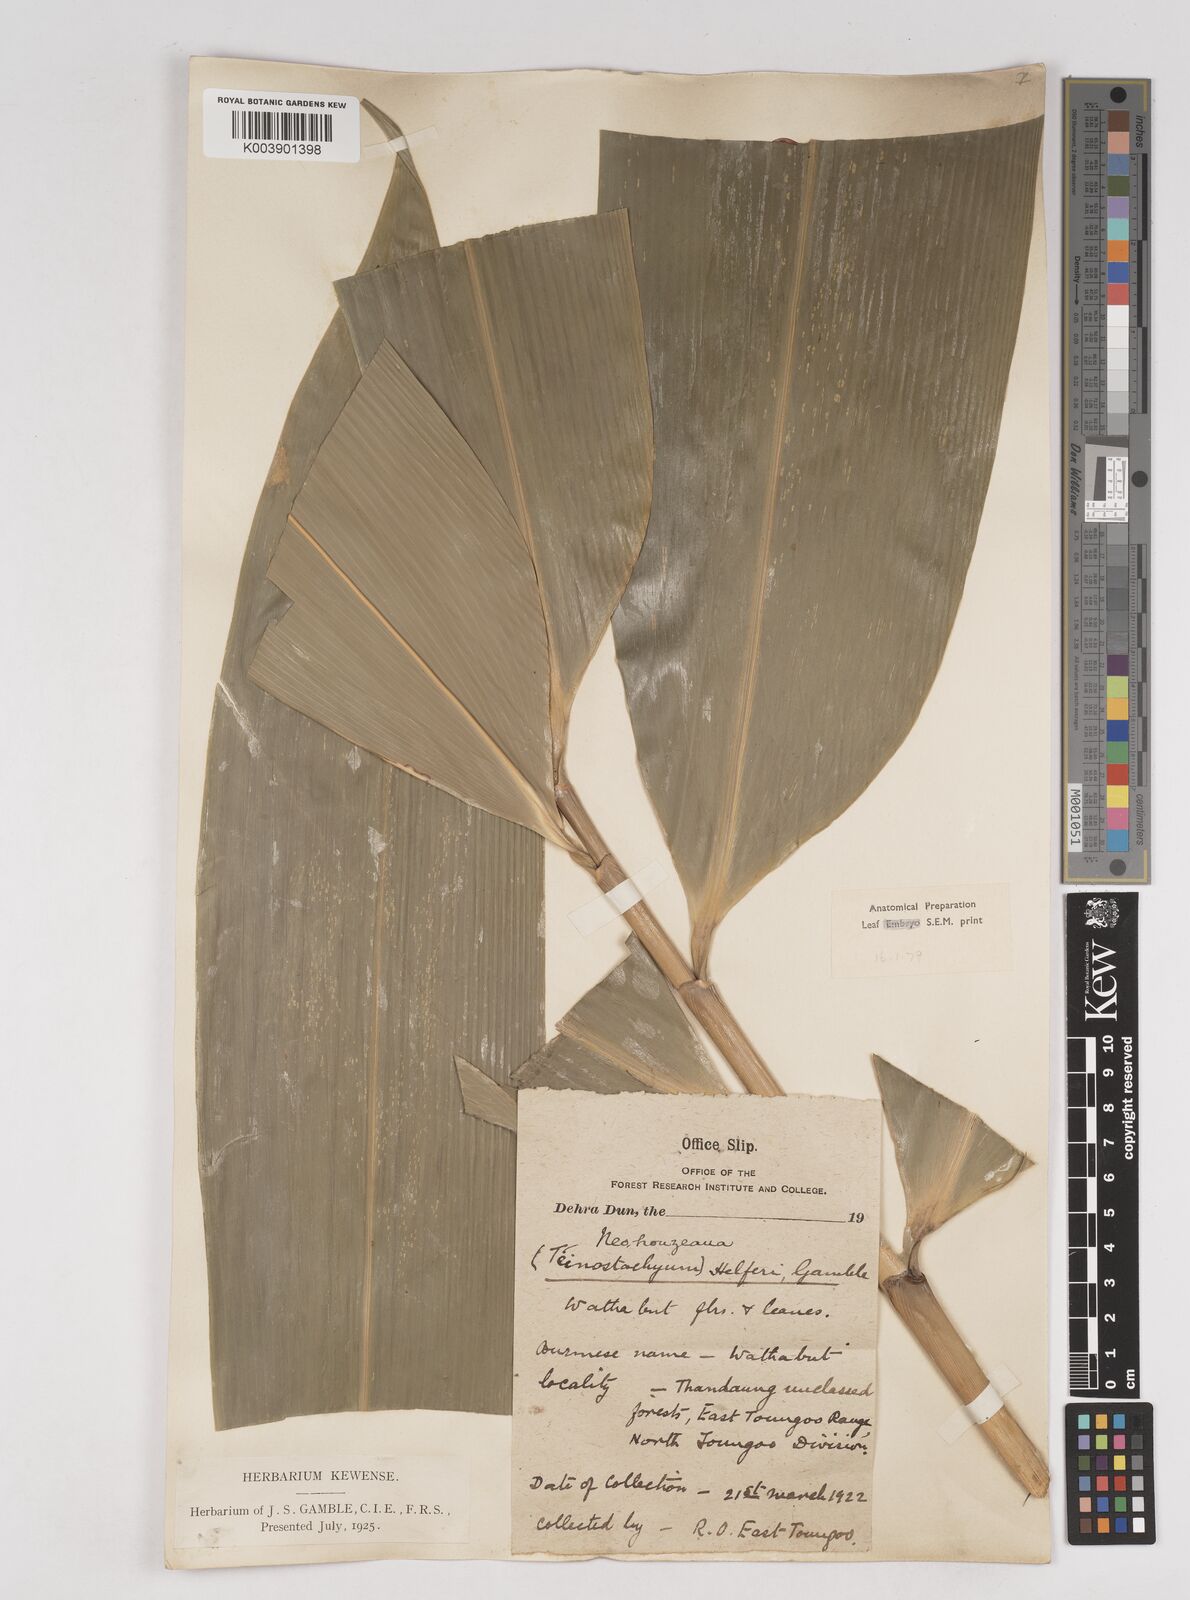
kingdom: Plantae
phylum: Tracheophyta
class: Liliopsida
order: Poales
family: Poaceae
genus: Schizostachyum
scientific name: Schizostachyum helferi
